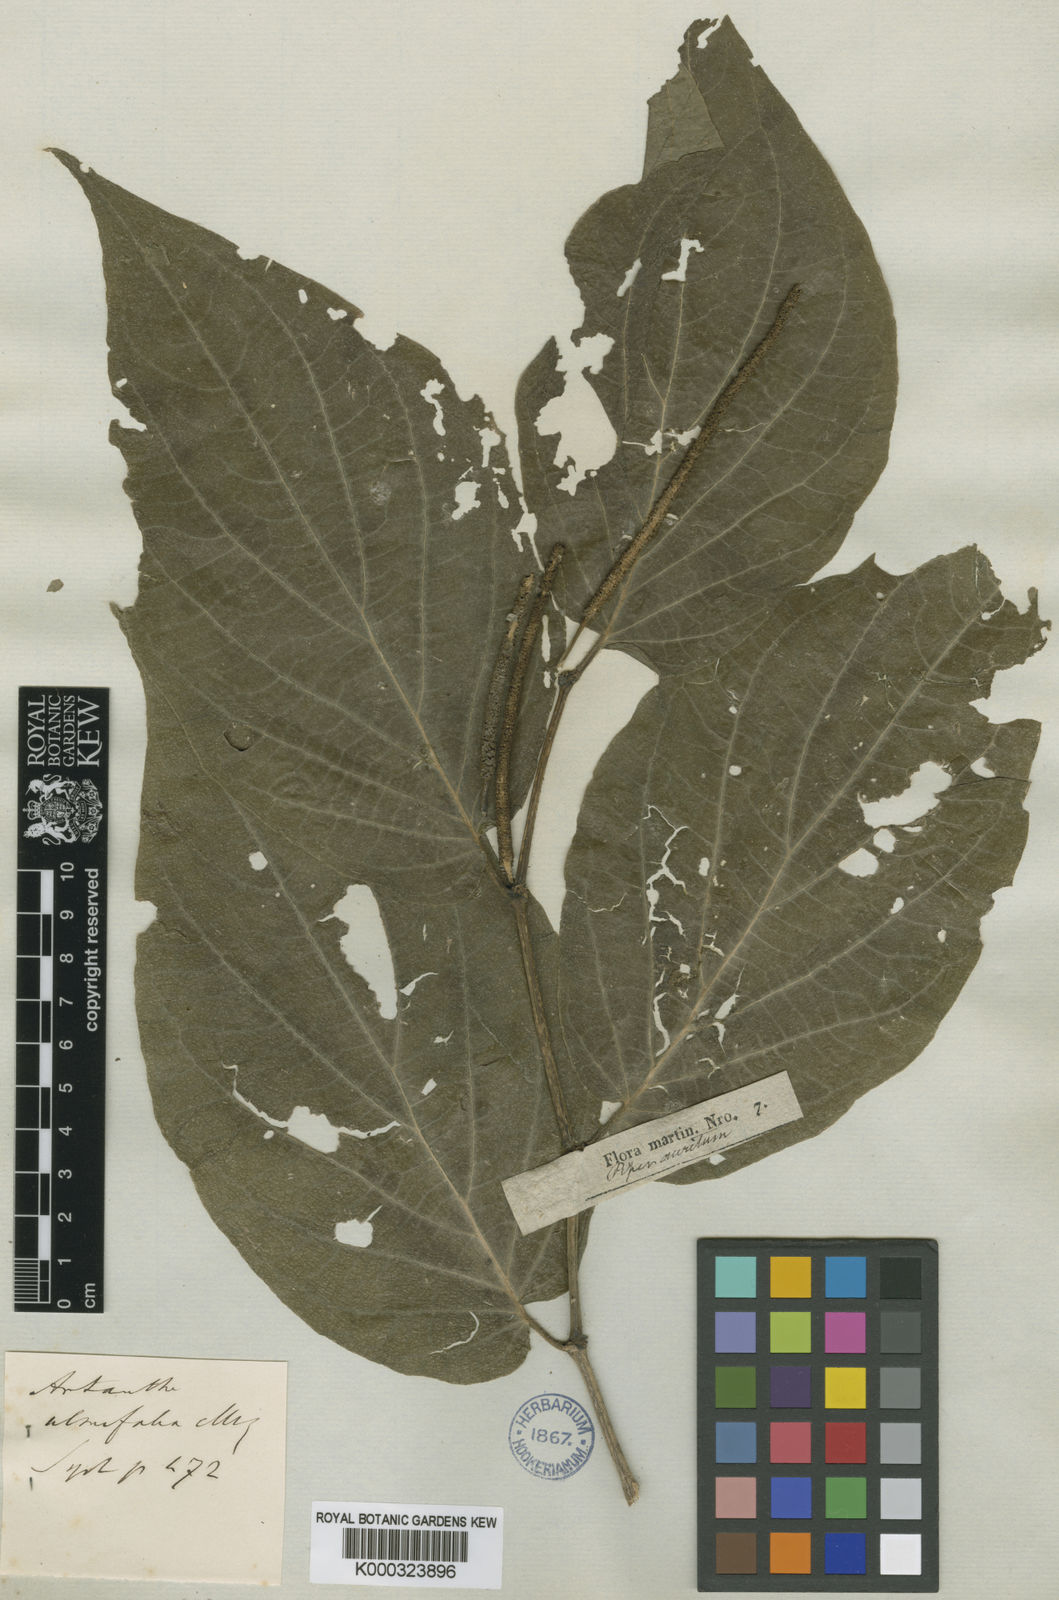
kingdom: Plantae
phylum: Tracheophyta
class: Magnoliopsida
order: Piperales
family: Piperaceae
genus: Piper
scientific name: Piper dilatatum
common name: Higuillo
